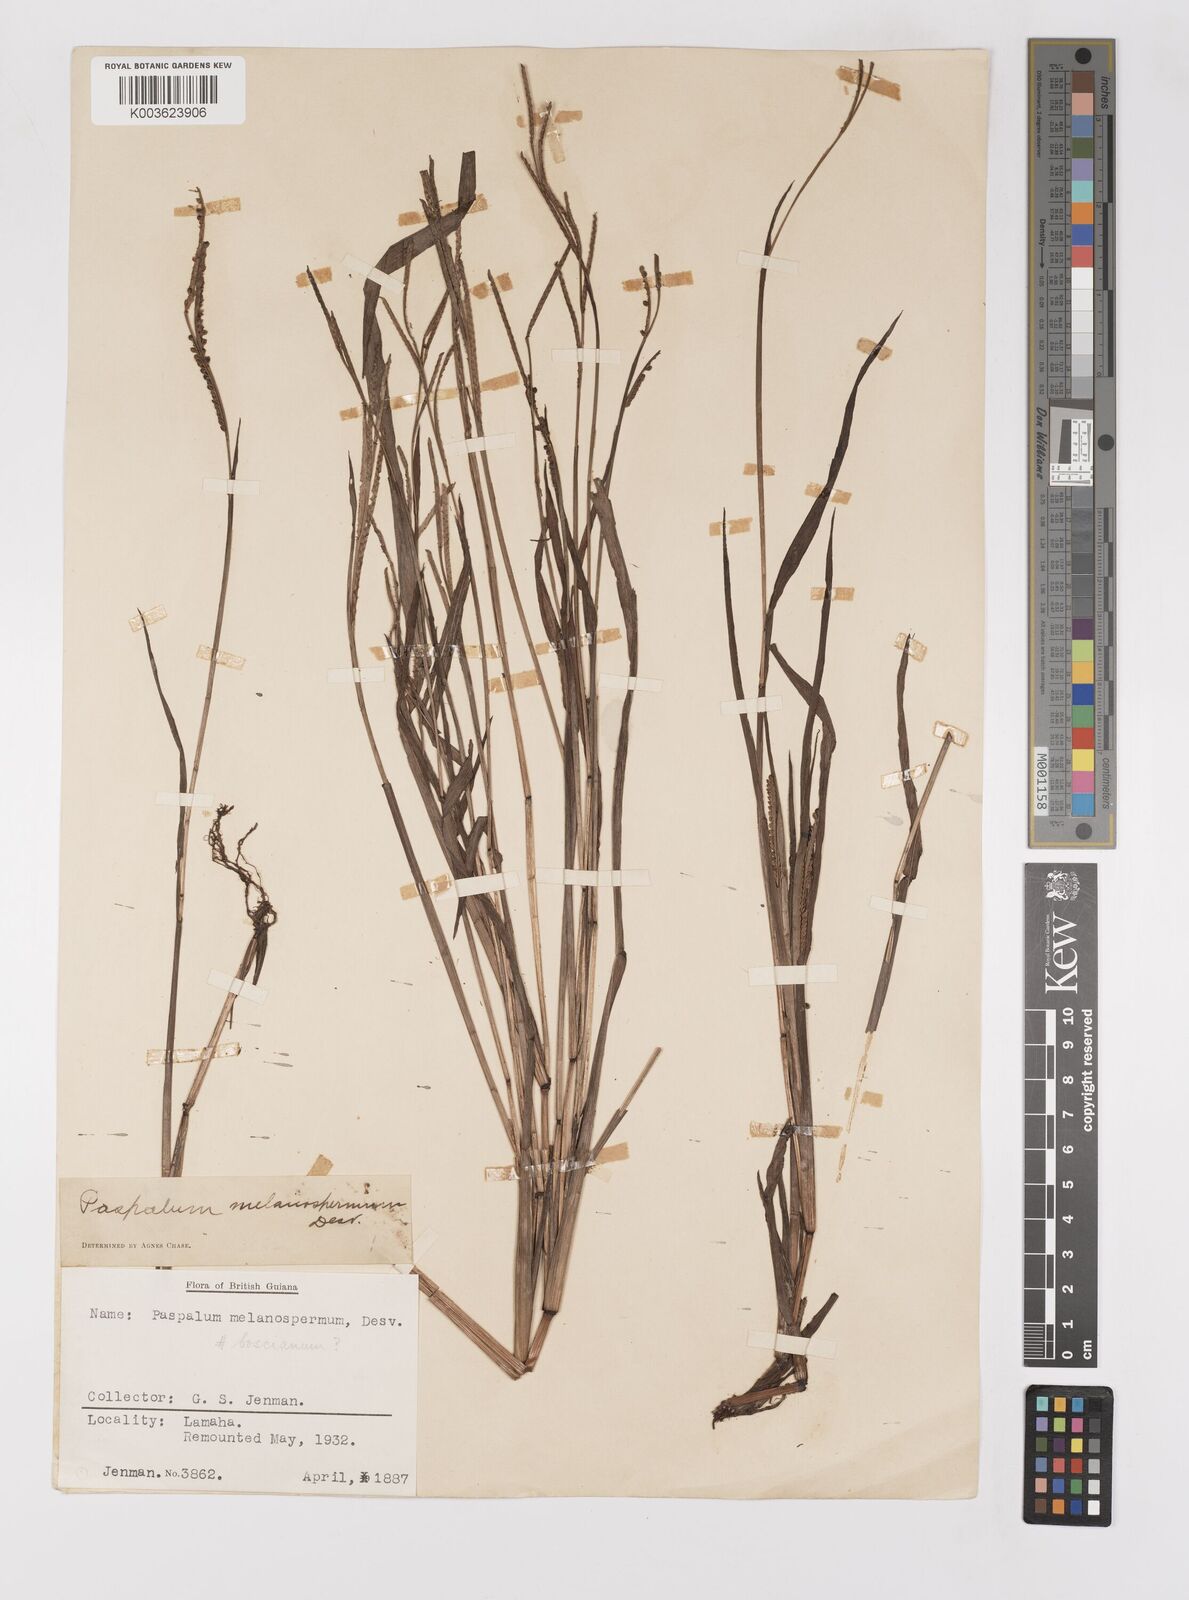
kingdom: Plantae
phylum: Tracheophyta
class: Liliopsida
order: Poales
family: Poaceae
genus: Paspalum
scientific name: Paspalum melanospermum
